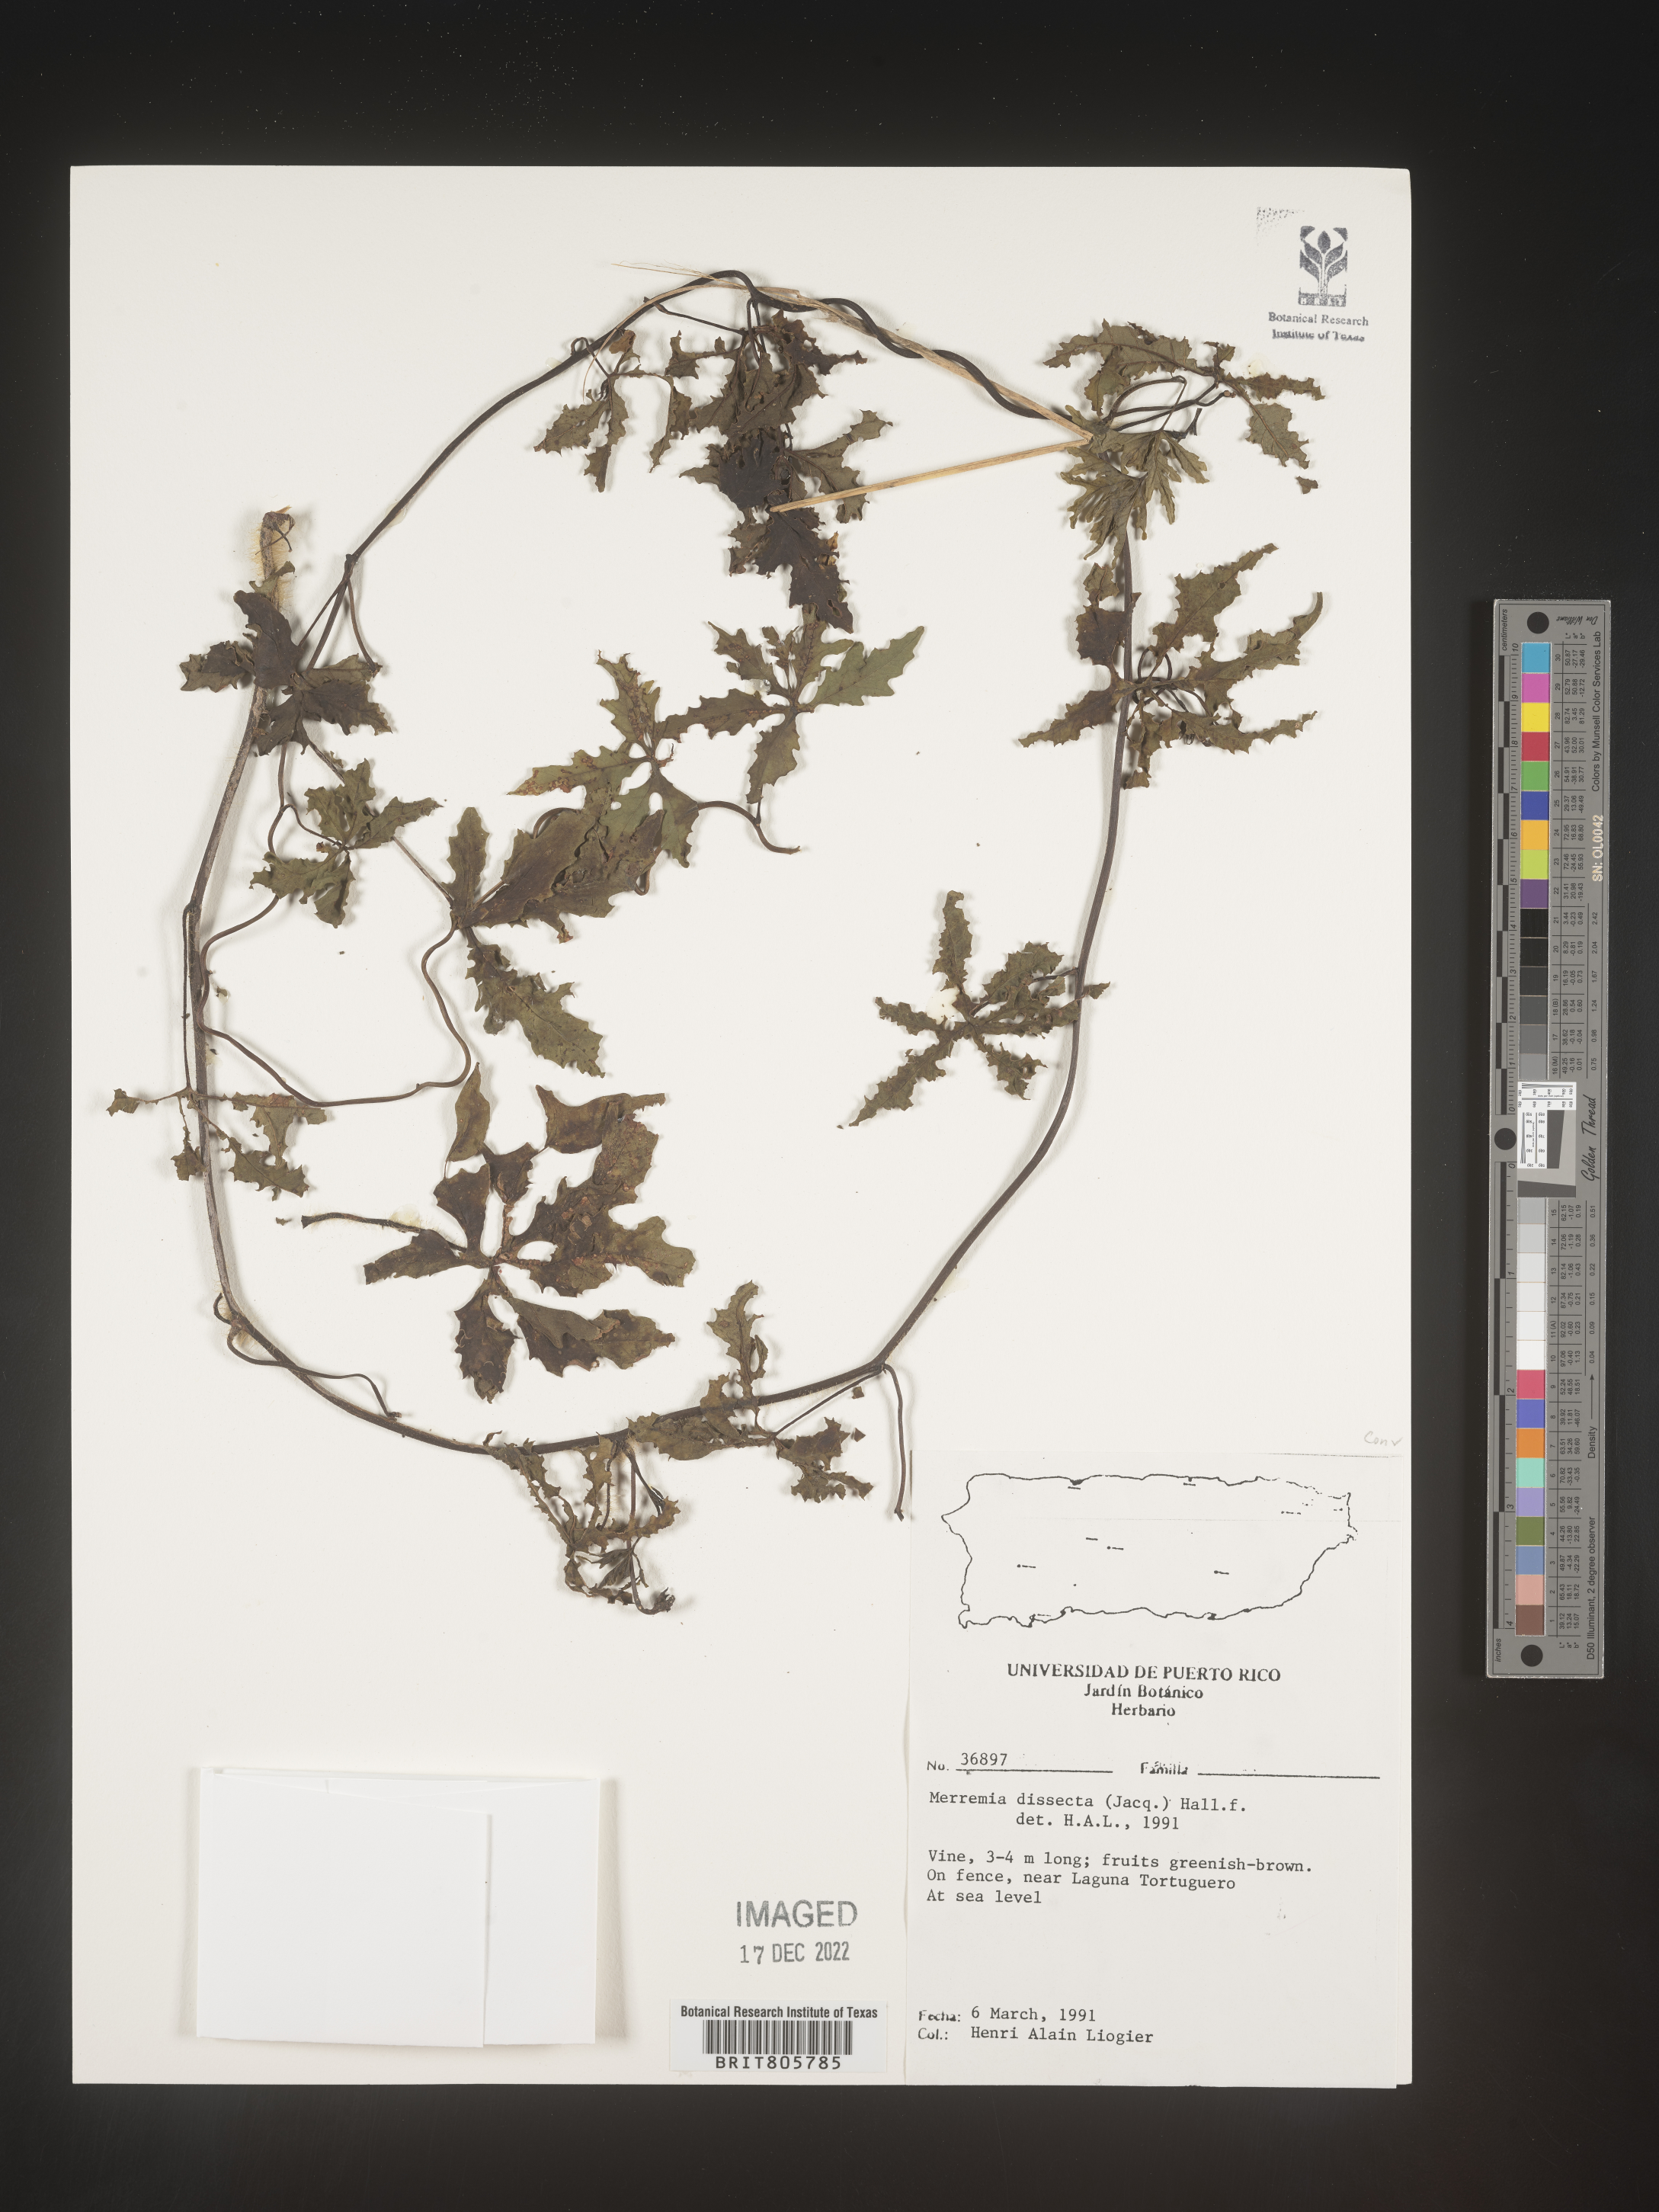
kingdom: Plantae
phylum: Tracheophyta
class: Magnoliopsida
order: Solanales
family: Convolvulaceae
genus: Merremia
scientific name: Merremia
